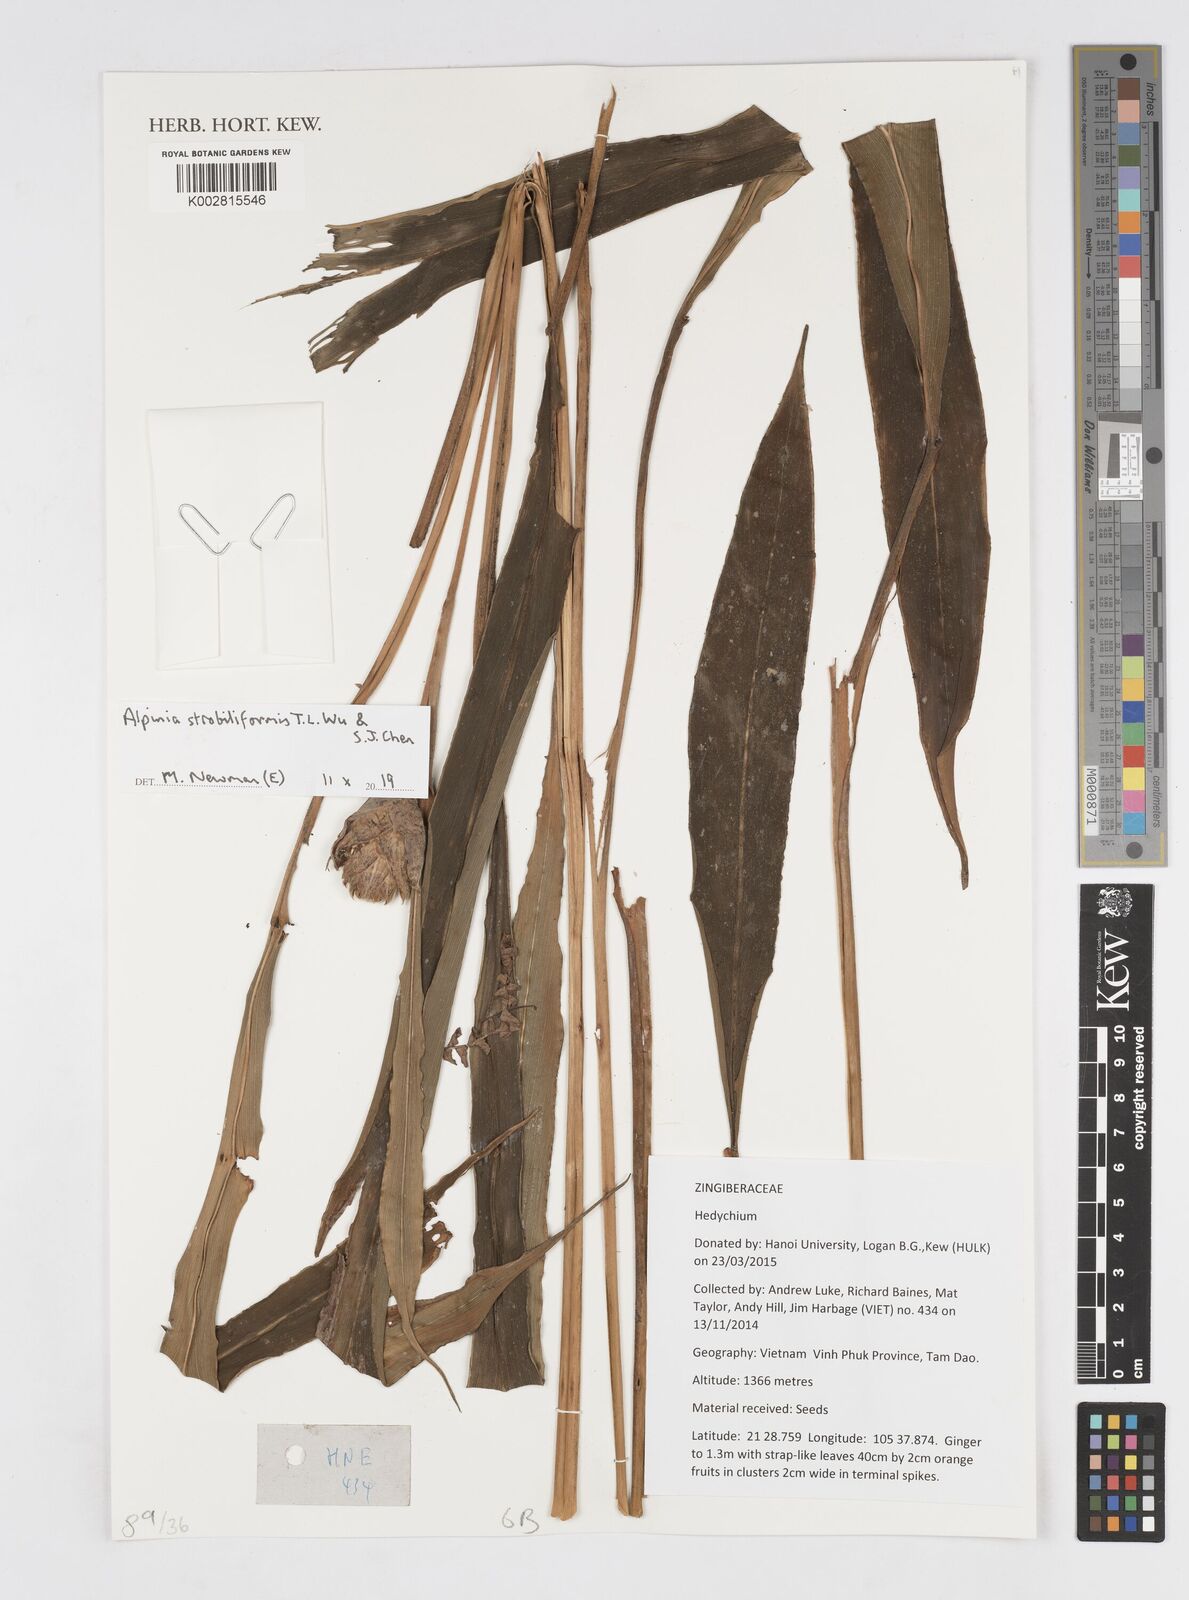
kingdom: Plantae
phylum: Tracheophyta
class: Liliopsida
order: Zingiberales
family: Zingiberaceae
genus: Alpinia
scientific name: Alpinia strobiliformis
